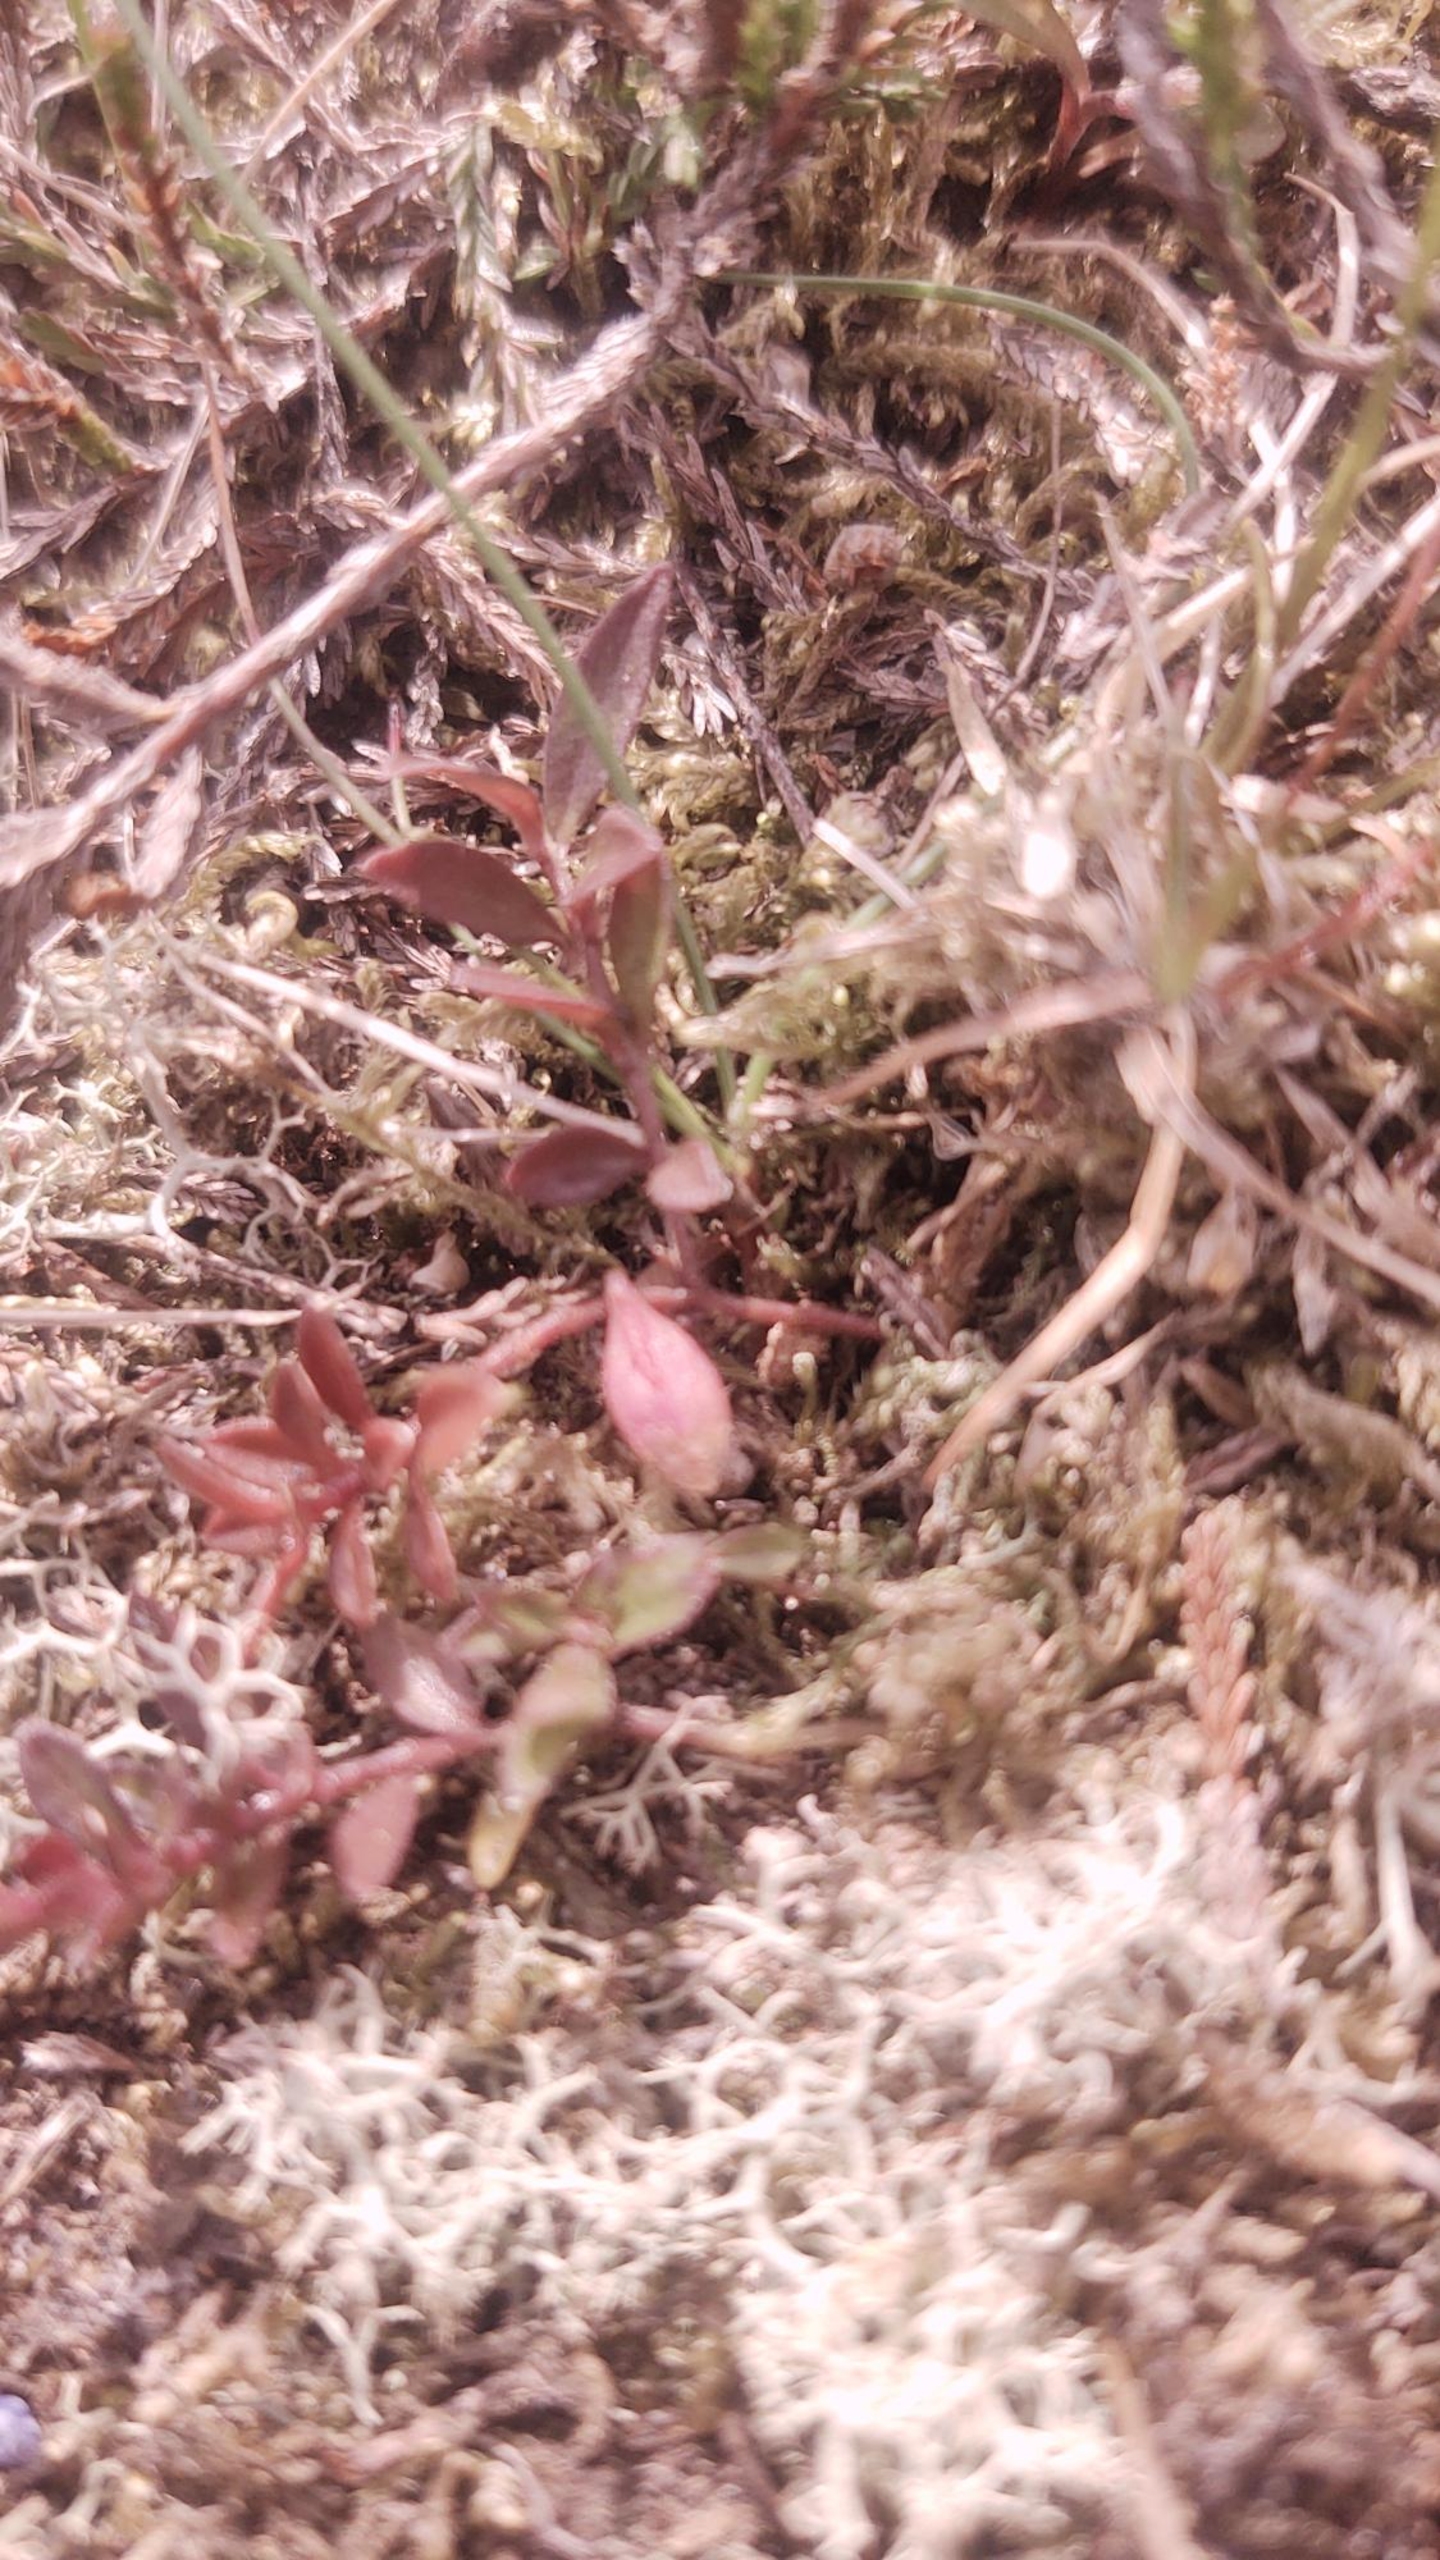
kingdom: Plantae
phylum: Tracheophyta
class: Magnoliopsida
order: Fabales
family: Polygalaceae
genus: Polygala
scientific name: Polygala serpyllifolia
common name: Spæd mælkeurt
